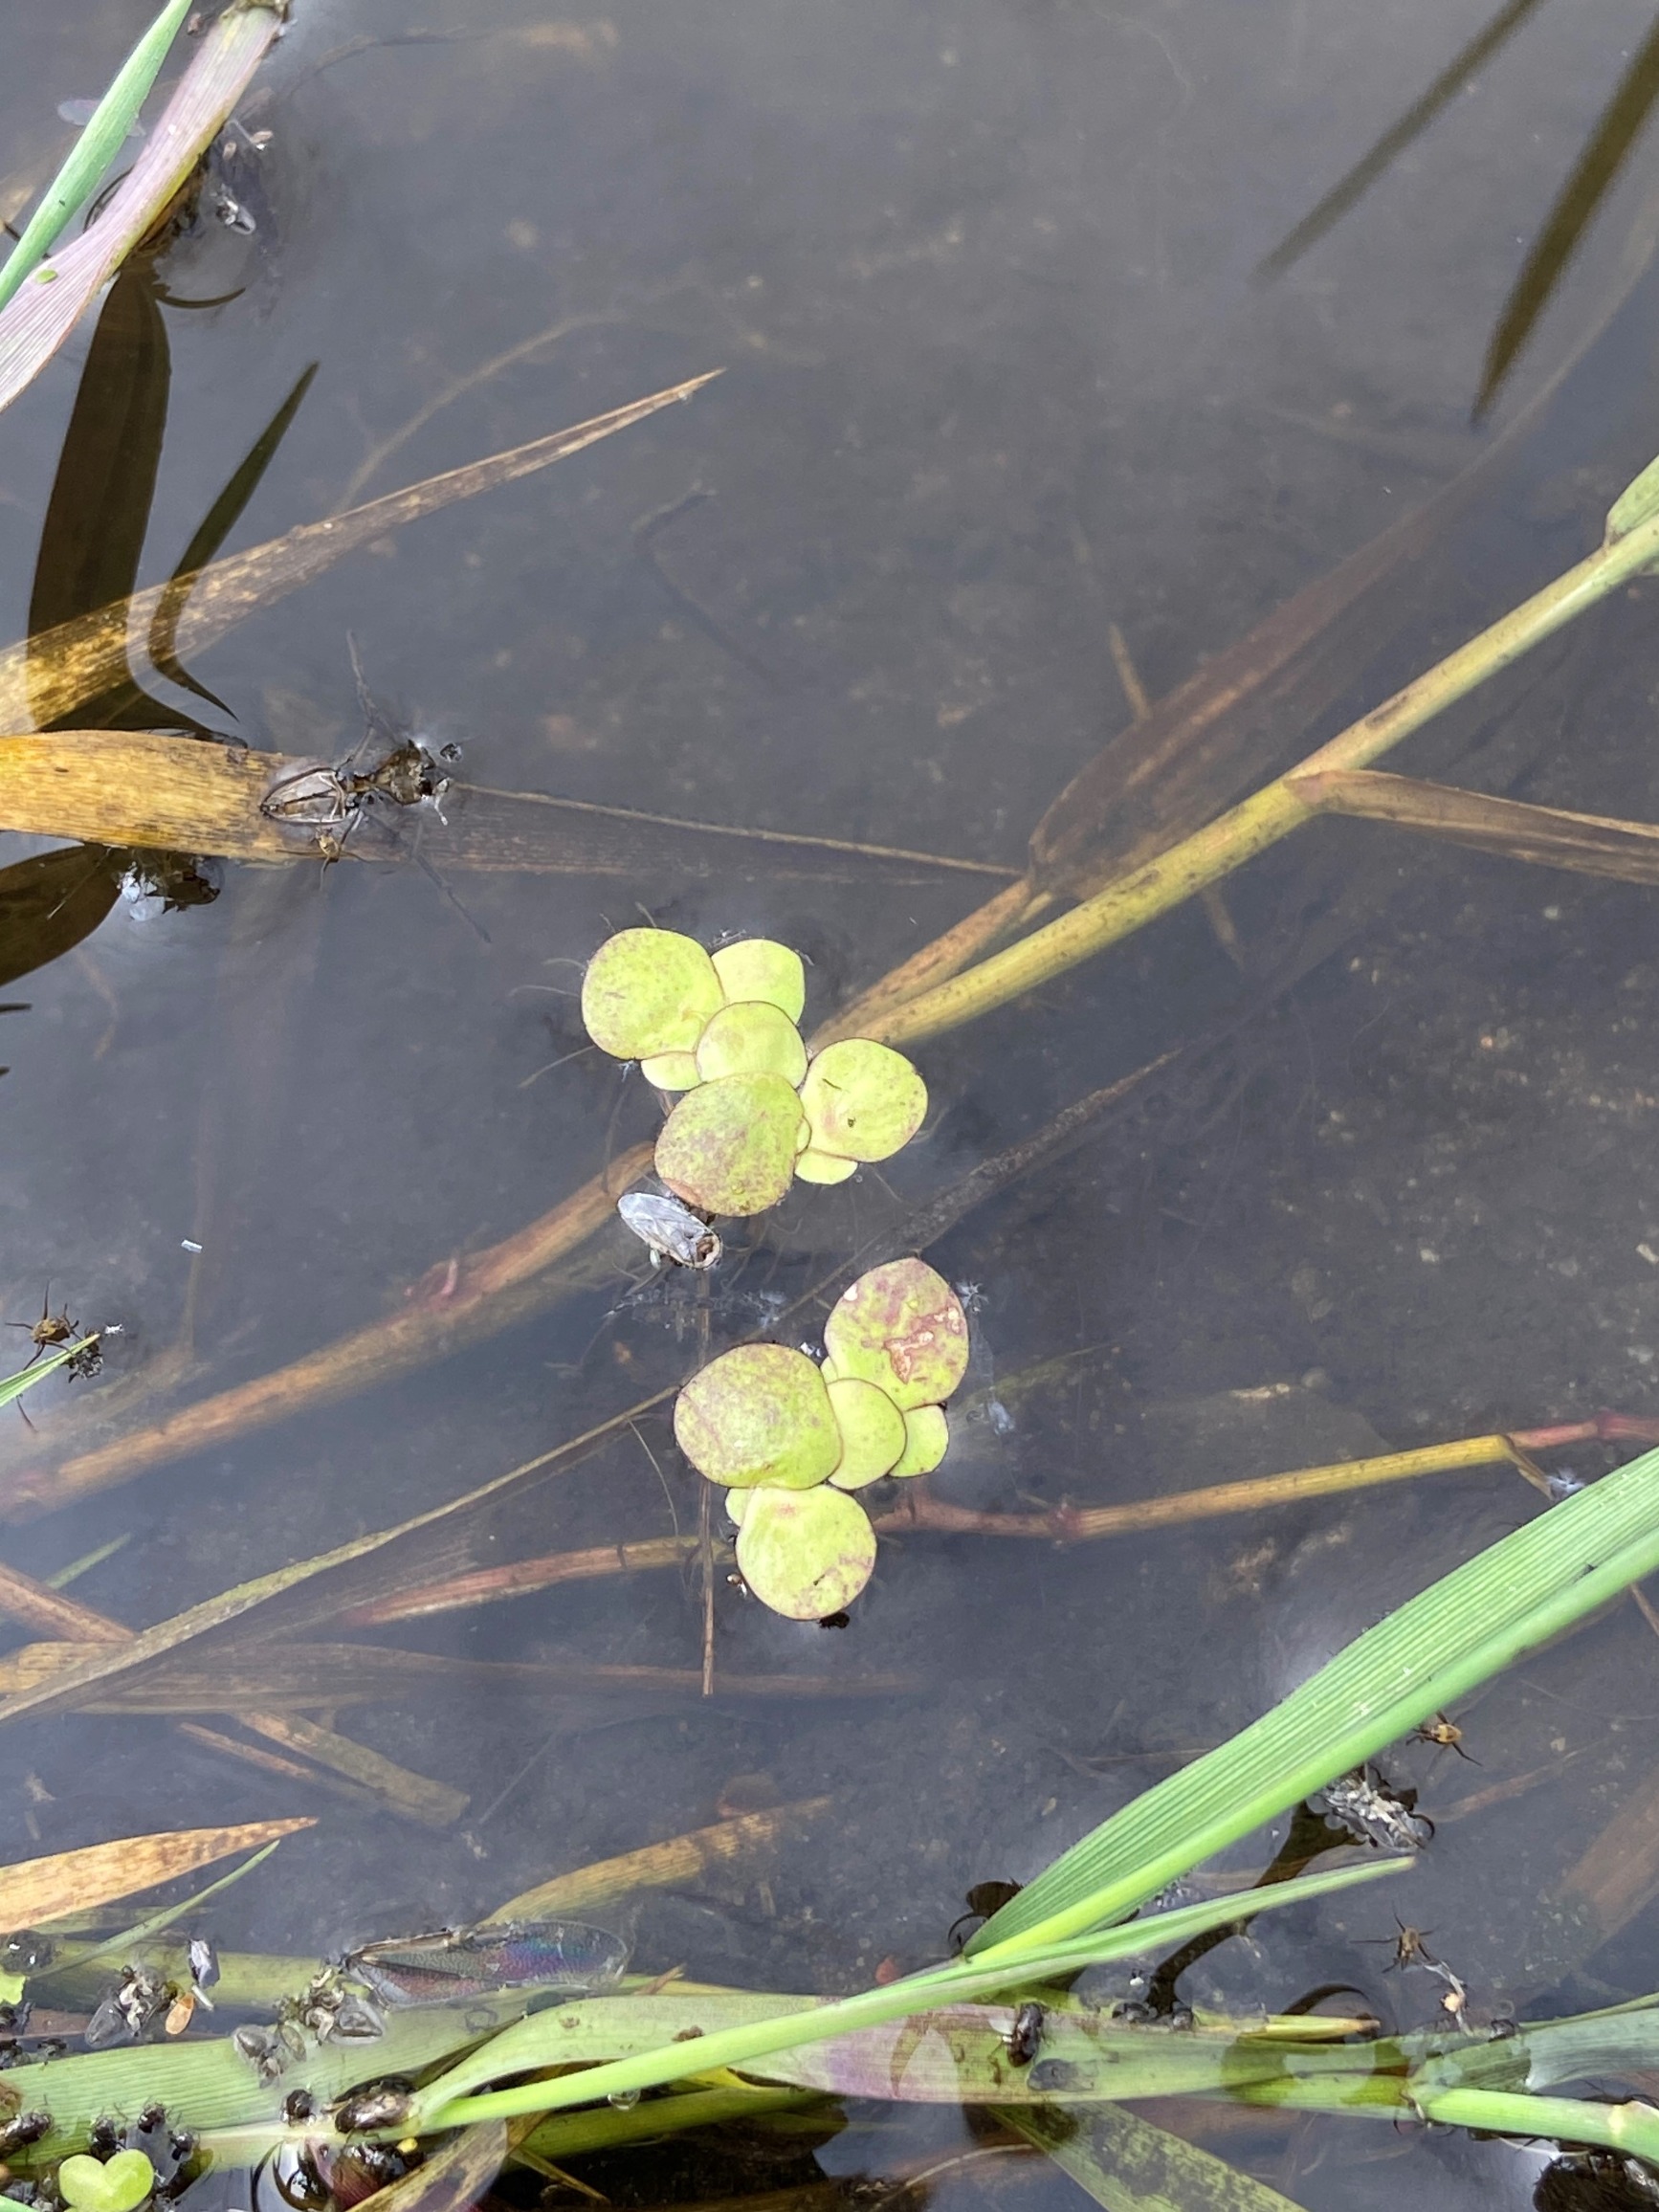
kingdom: Plantae
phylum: Tracheophyta
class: Liliopsida
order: Alismatales
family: Araceae
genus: Spirodela
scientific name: Spirodela polyrhiza
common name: Stor andemad
